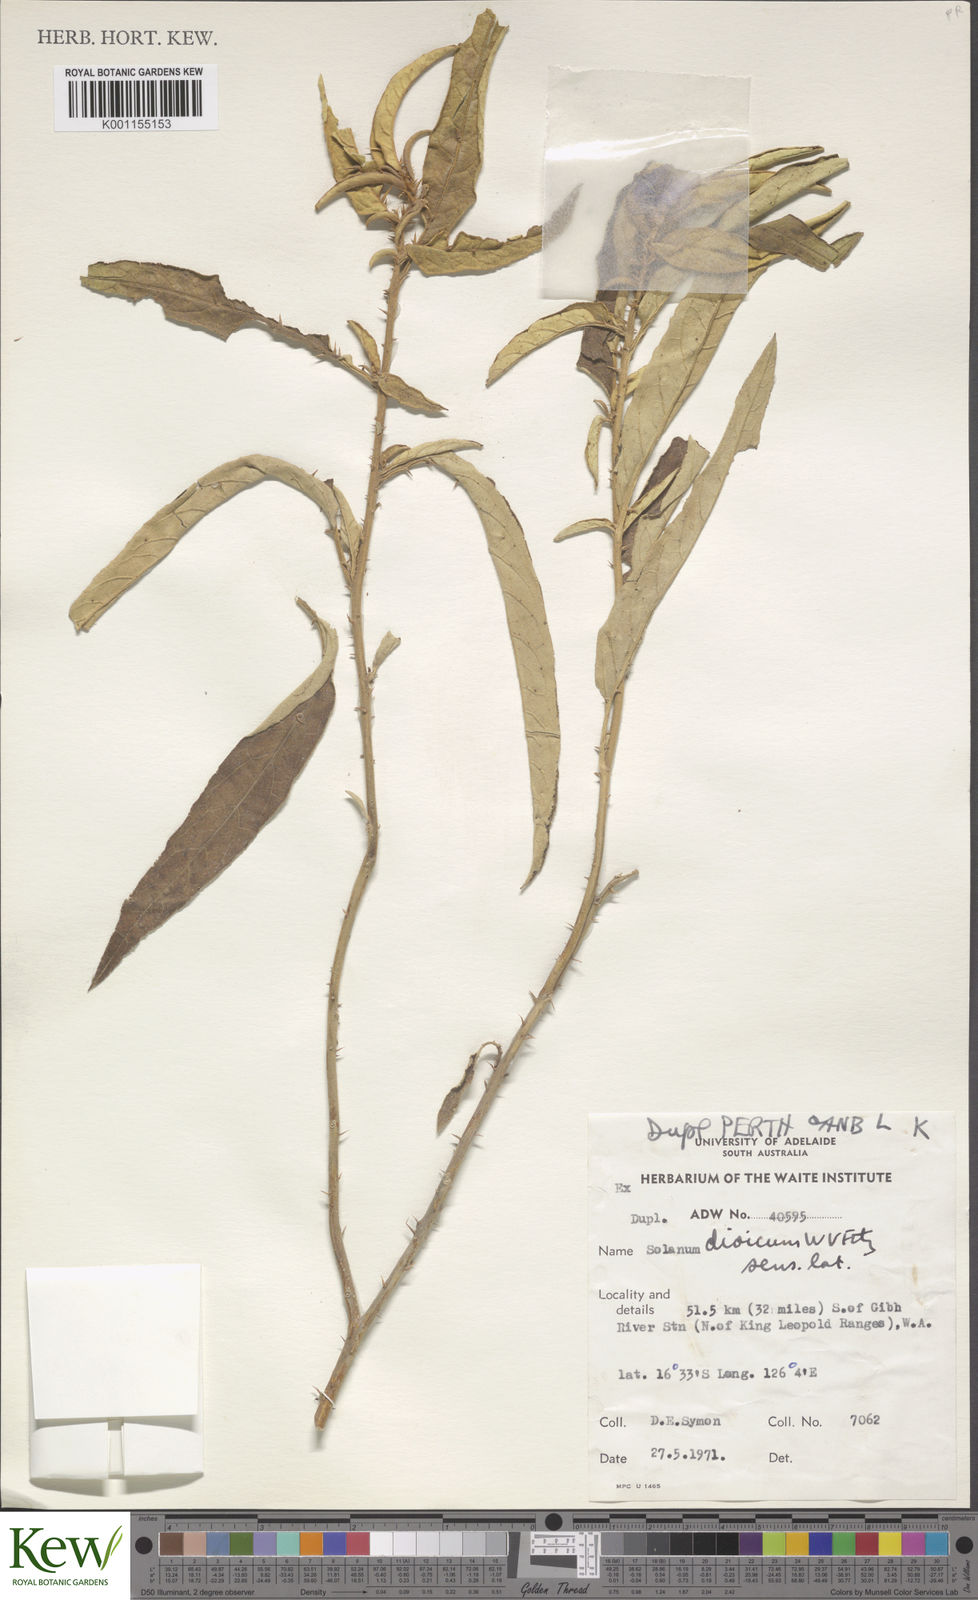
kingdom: Plantae
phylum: Tracheophyta
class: Magnoliopsida
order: Solanales
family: Solanaceae
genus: Solanum
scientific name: Solanum dioicum
